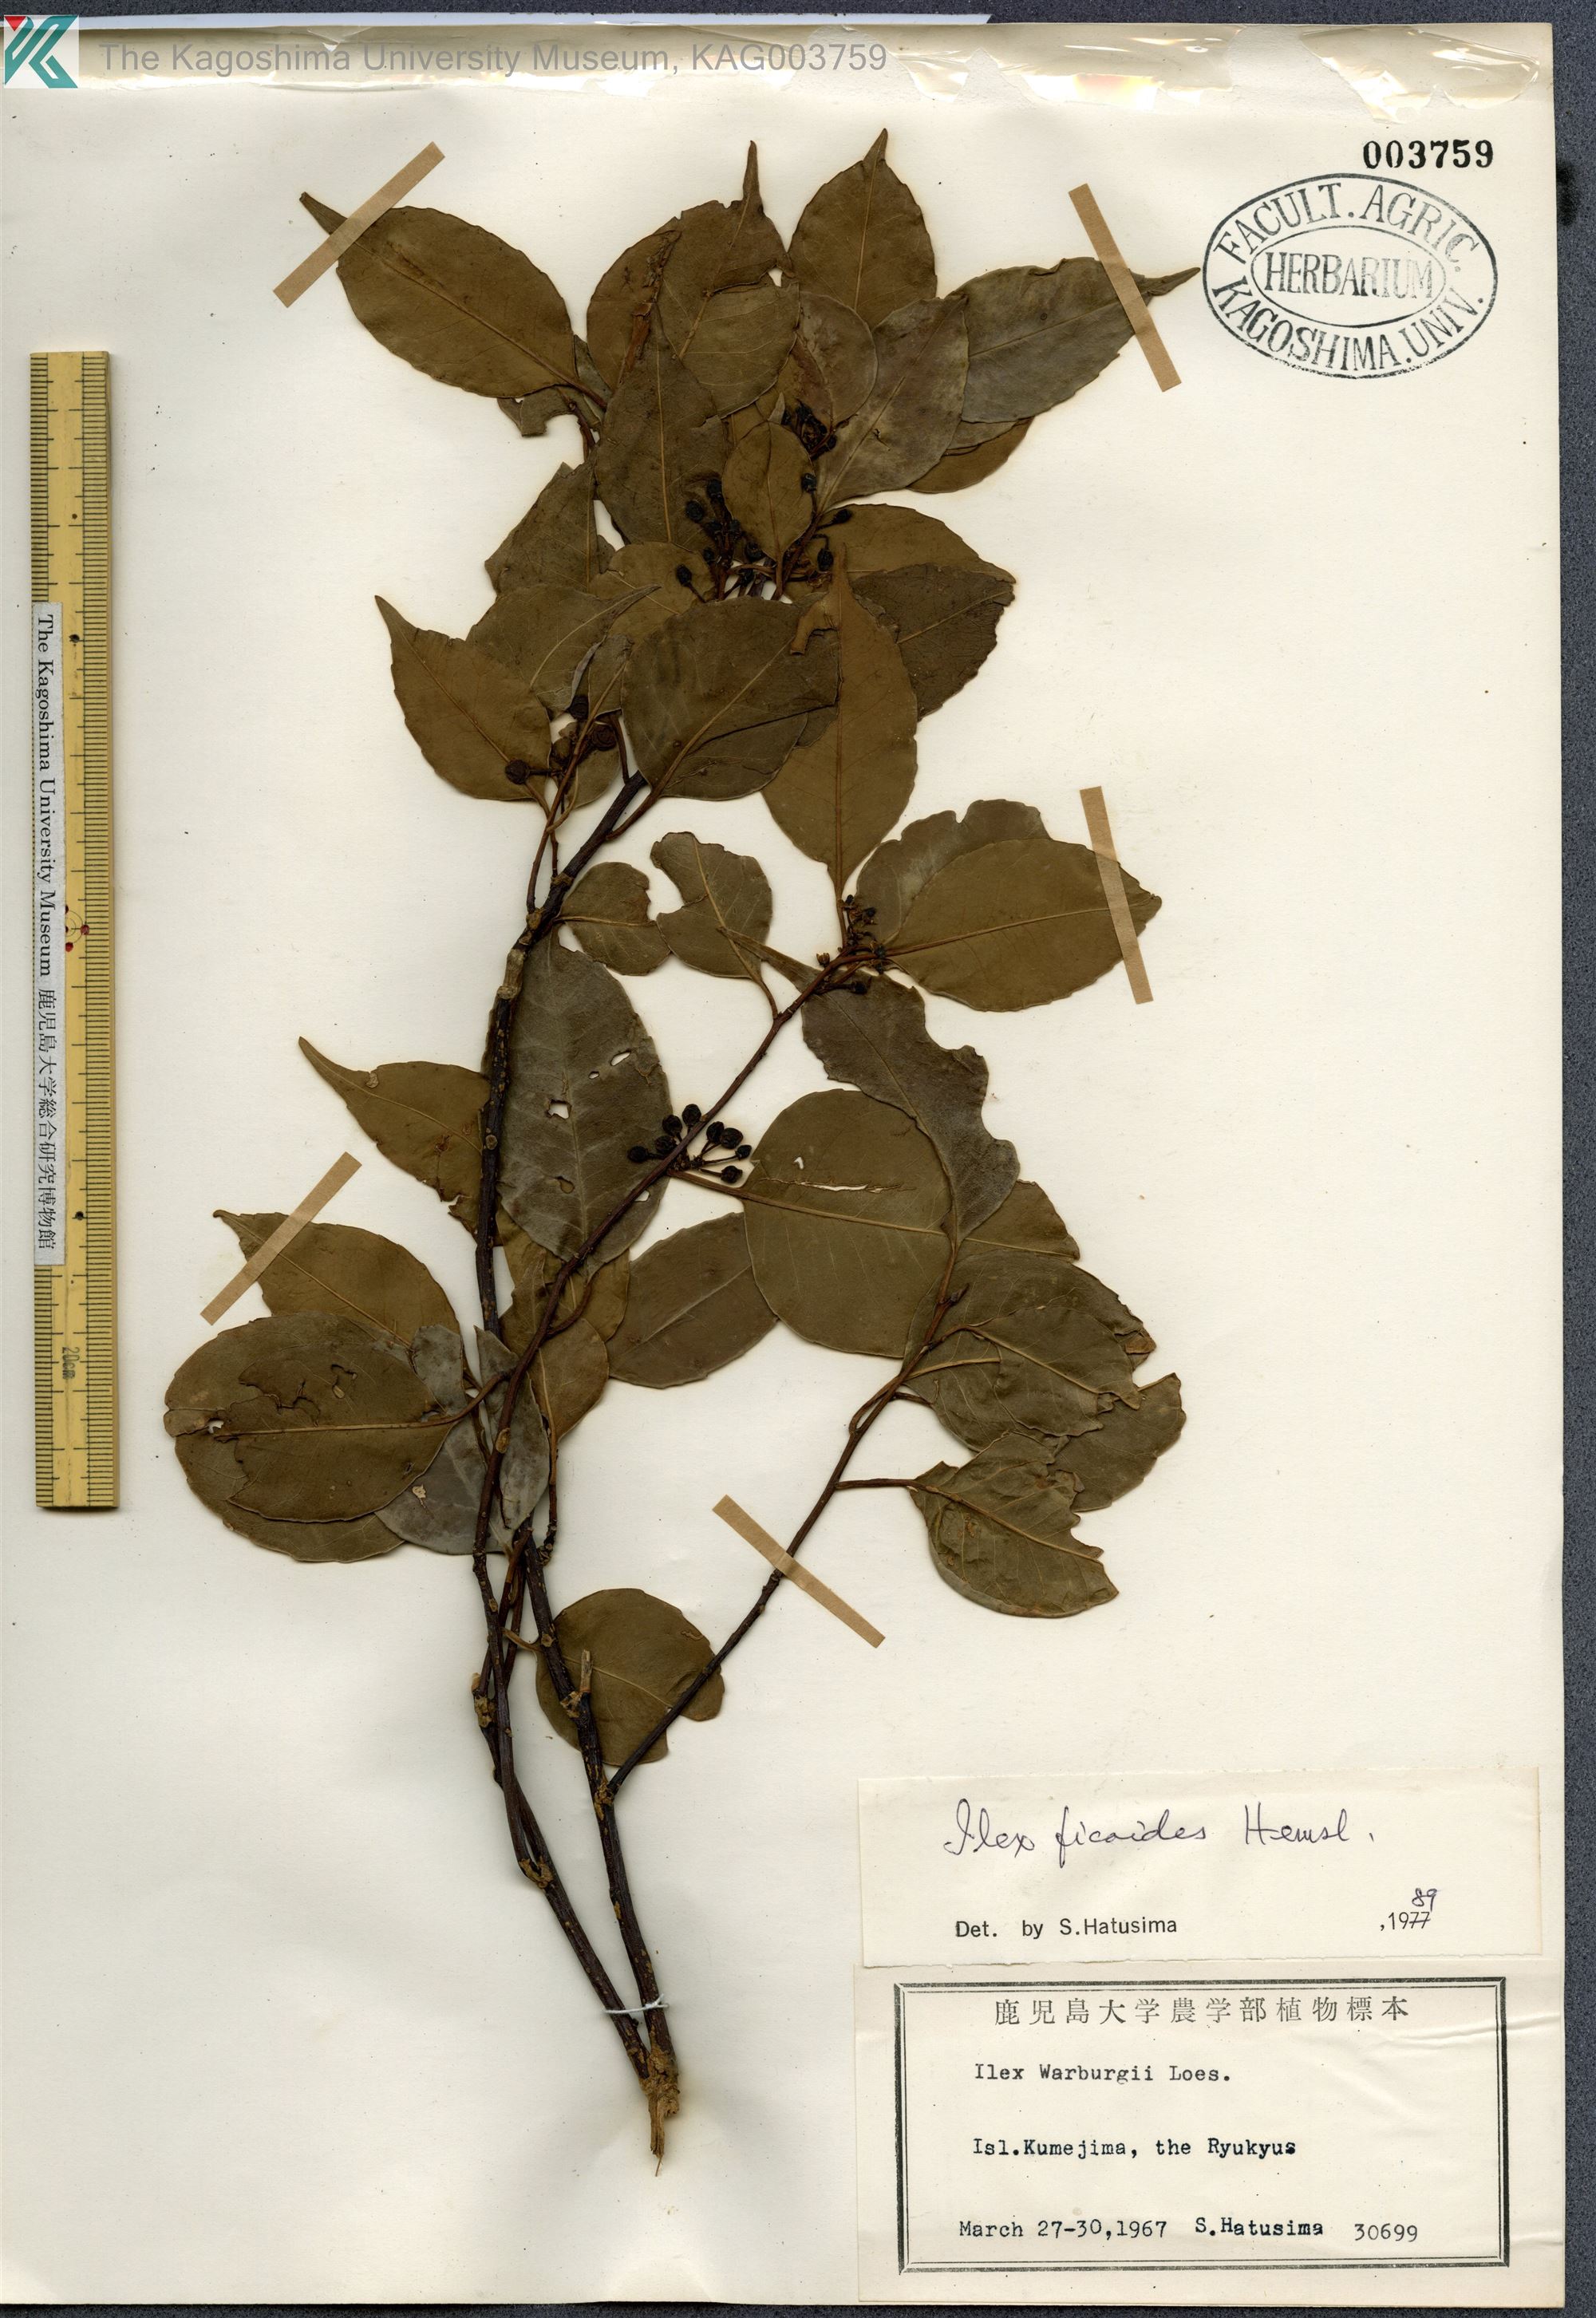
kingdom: Plantae
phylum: Tracheophyta
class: Magnoliopsida
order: Aquifoliales
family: Aquifoliaceae
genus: Ilex
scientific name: Ilex warburgii
